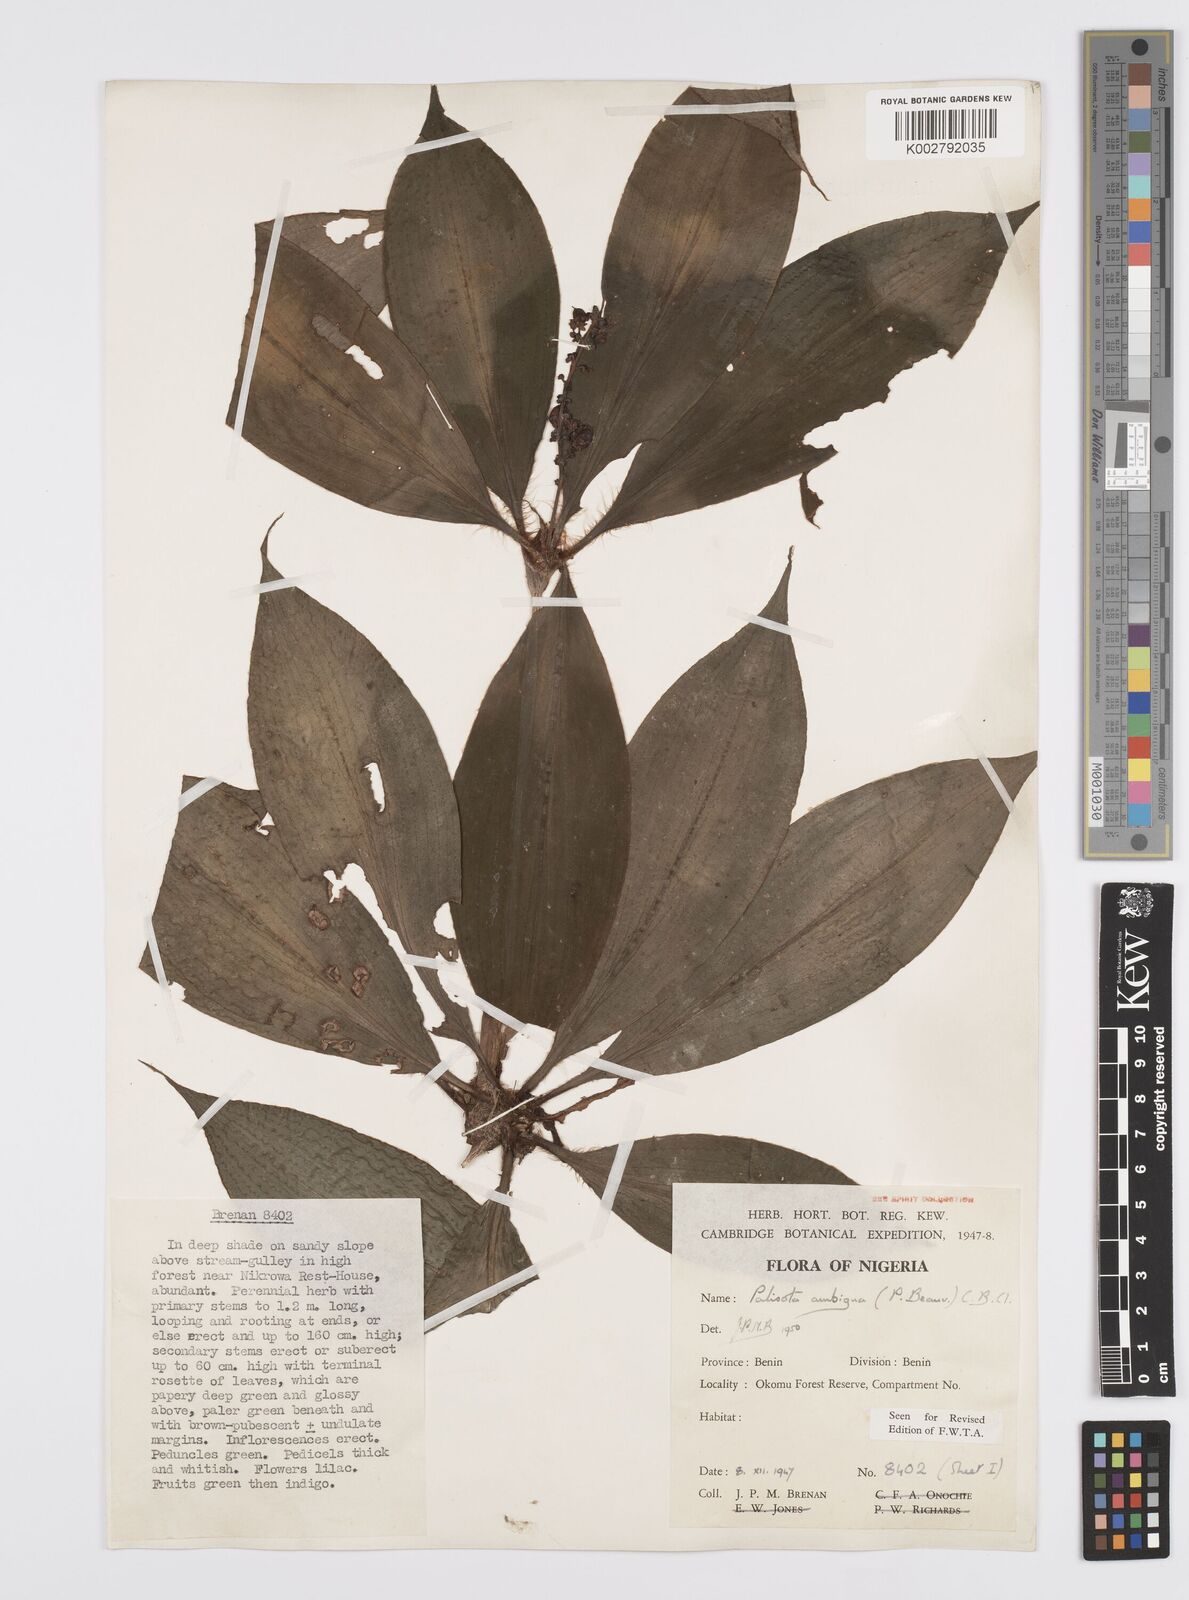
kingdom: Plantae
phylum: Tracheophyta
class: Liliopsida
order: Commelinales
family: Commelinaceae
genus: Palisota
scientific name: Palisota ambigua
